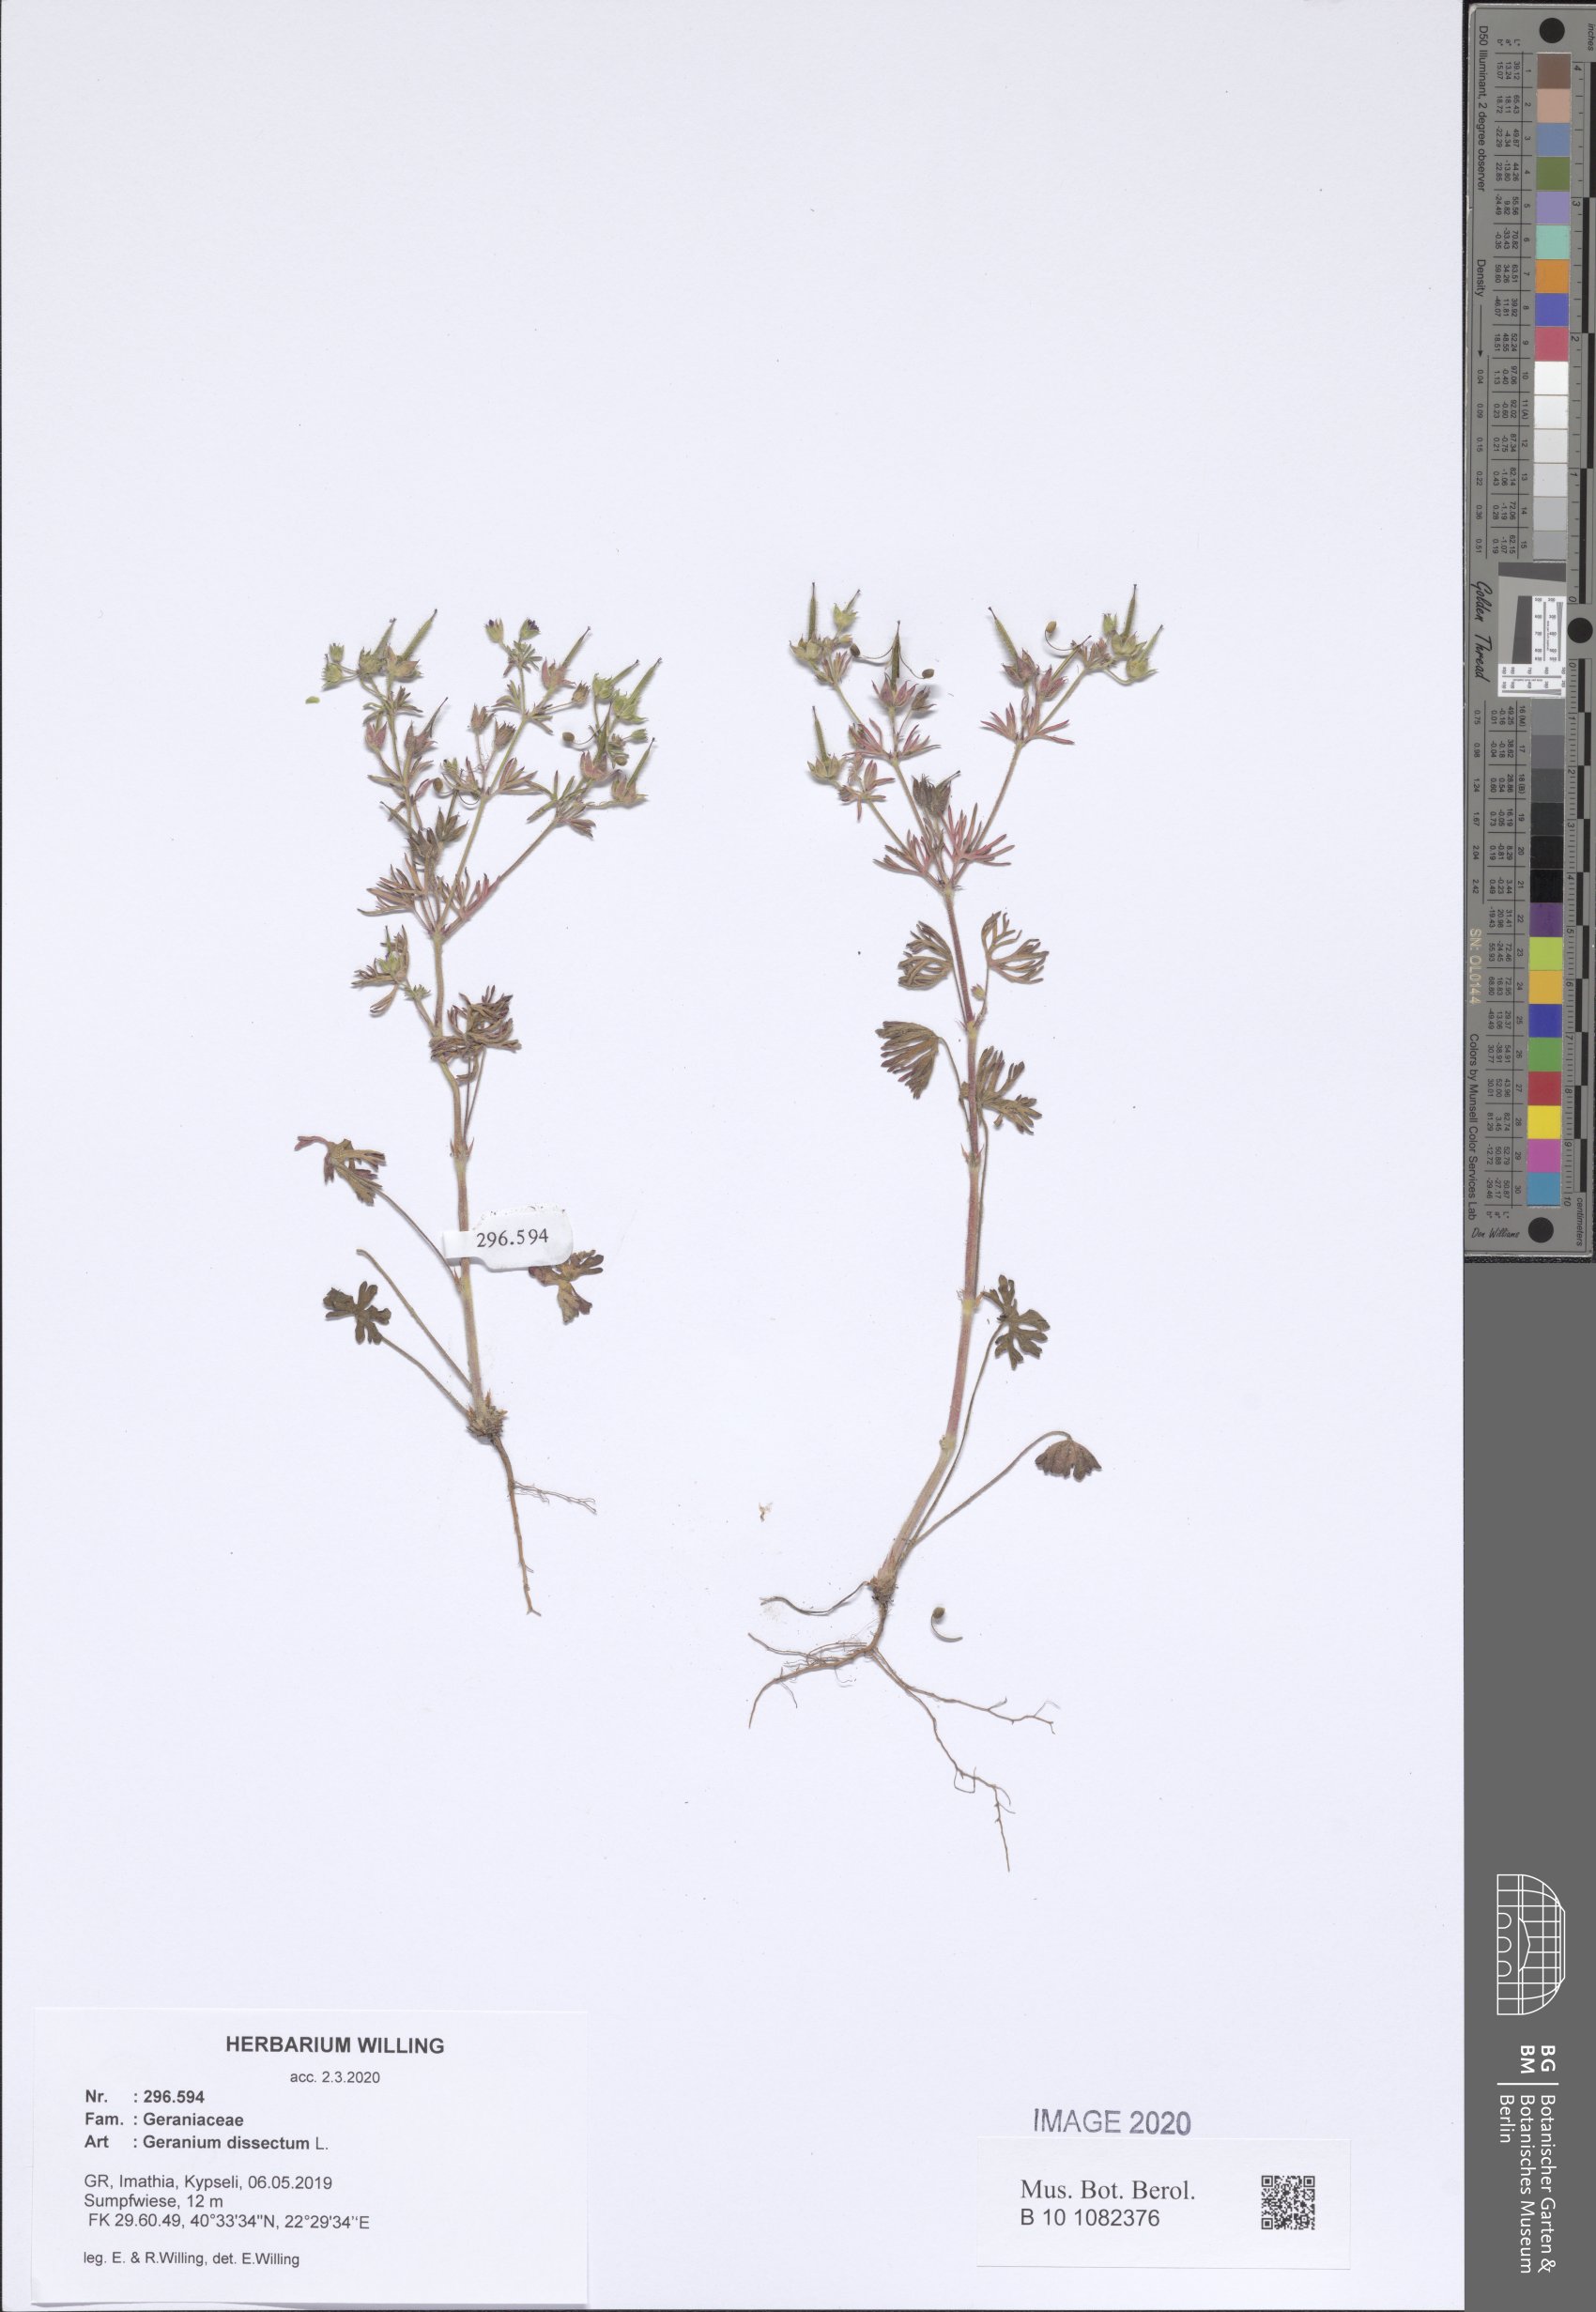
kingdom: Plantae
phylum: Tracheophyta
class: Magnoliopsida
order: Geraniales
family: Geraniaceae
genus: Geranium
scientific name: Geranium dissectum
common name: Cut-leaved crane's-bill
